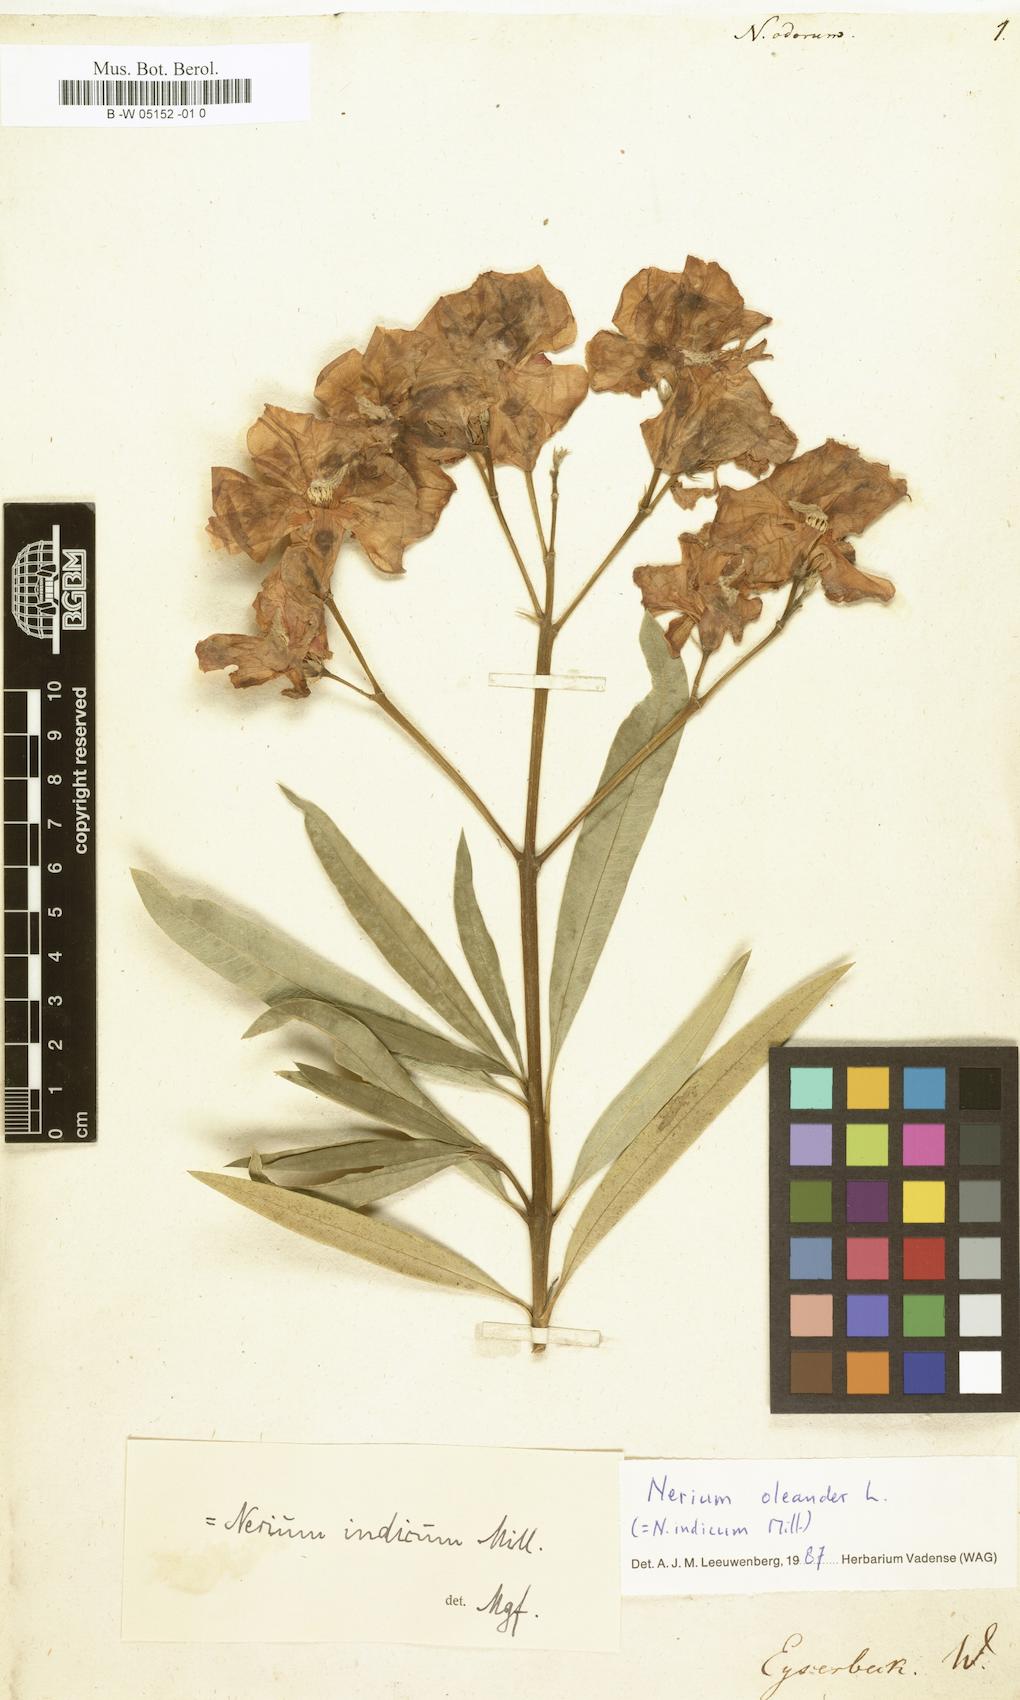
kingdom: Plantae
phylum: Tracheophyta
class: Magnoliopsida
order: Gentianales
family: Apocynaceae
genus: Nerium
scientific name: Nerium
